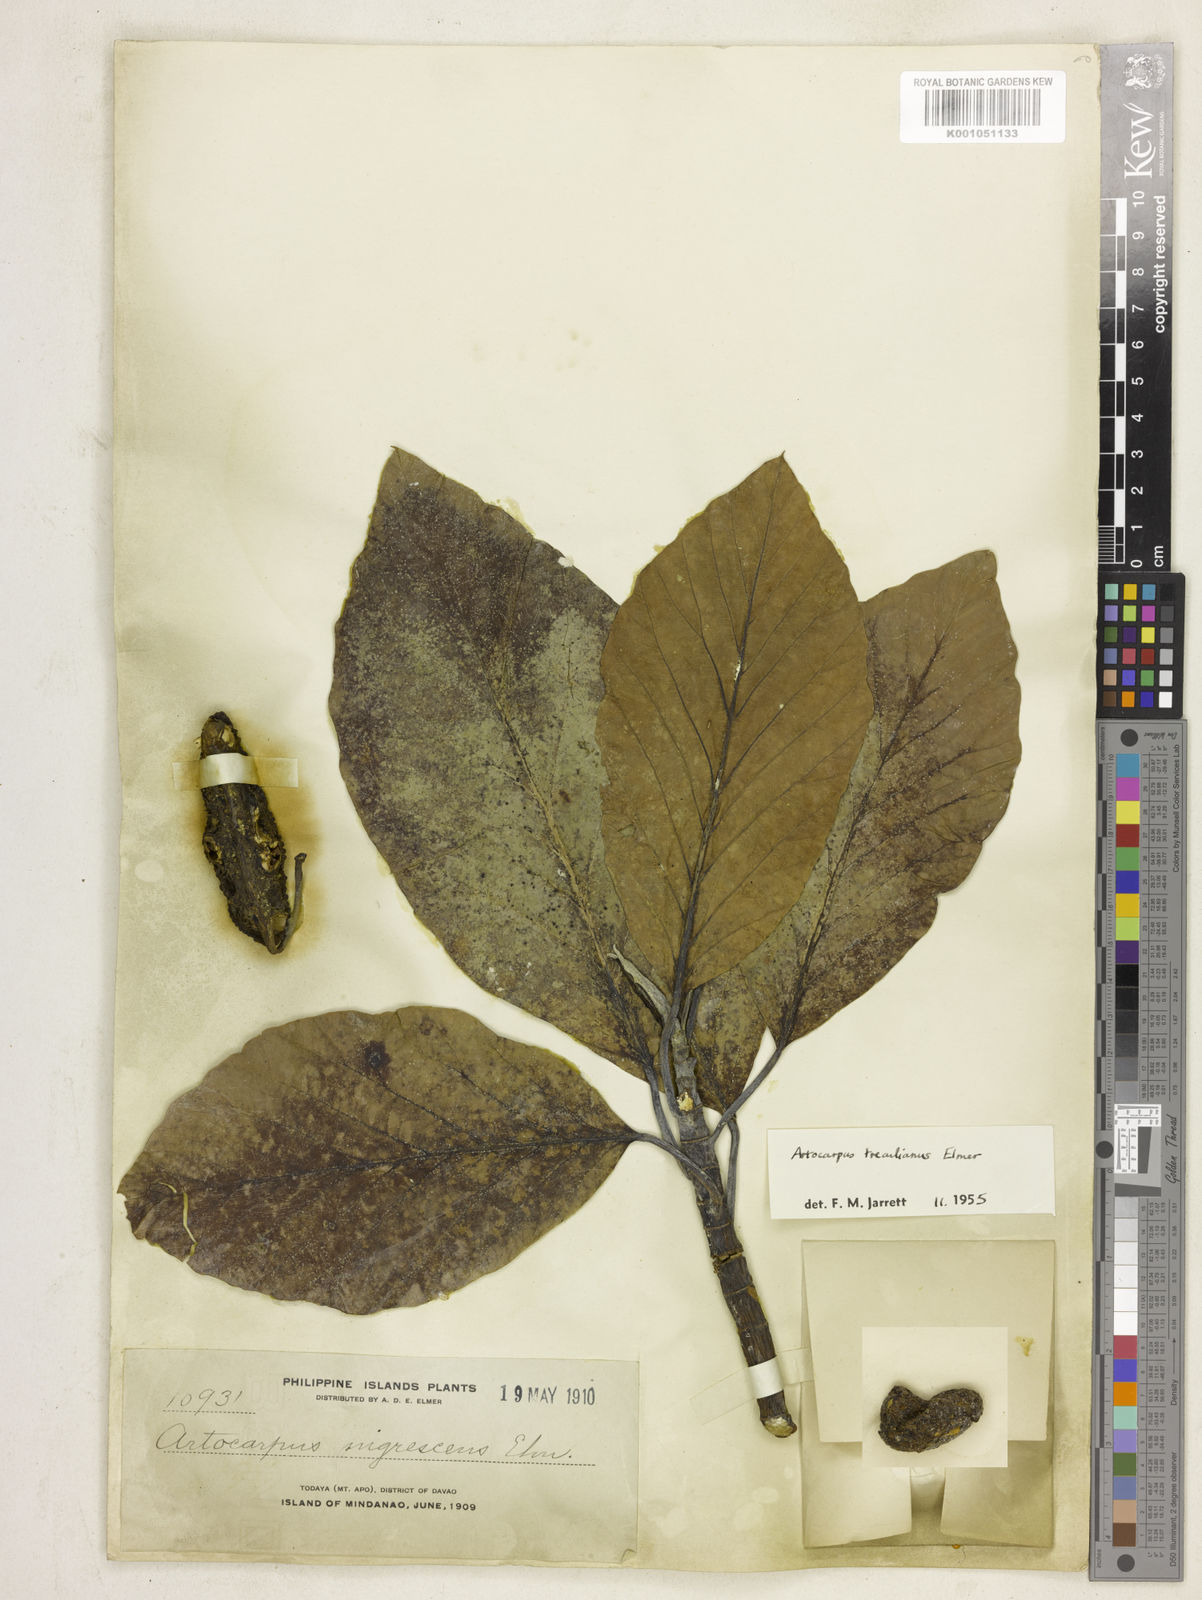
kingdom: Plantae
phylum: Tracheophyta
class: Magnoliopsida
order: Rosales
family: Moraceae
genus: Artocarpus
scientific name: Artocarpus treculianus
